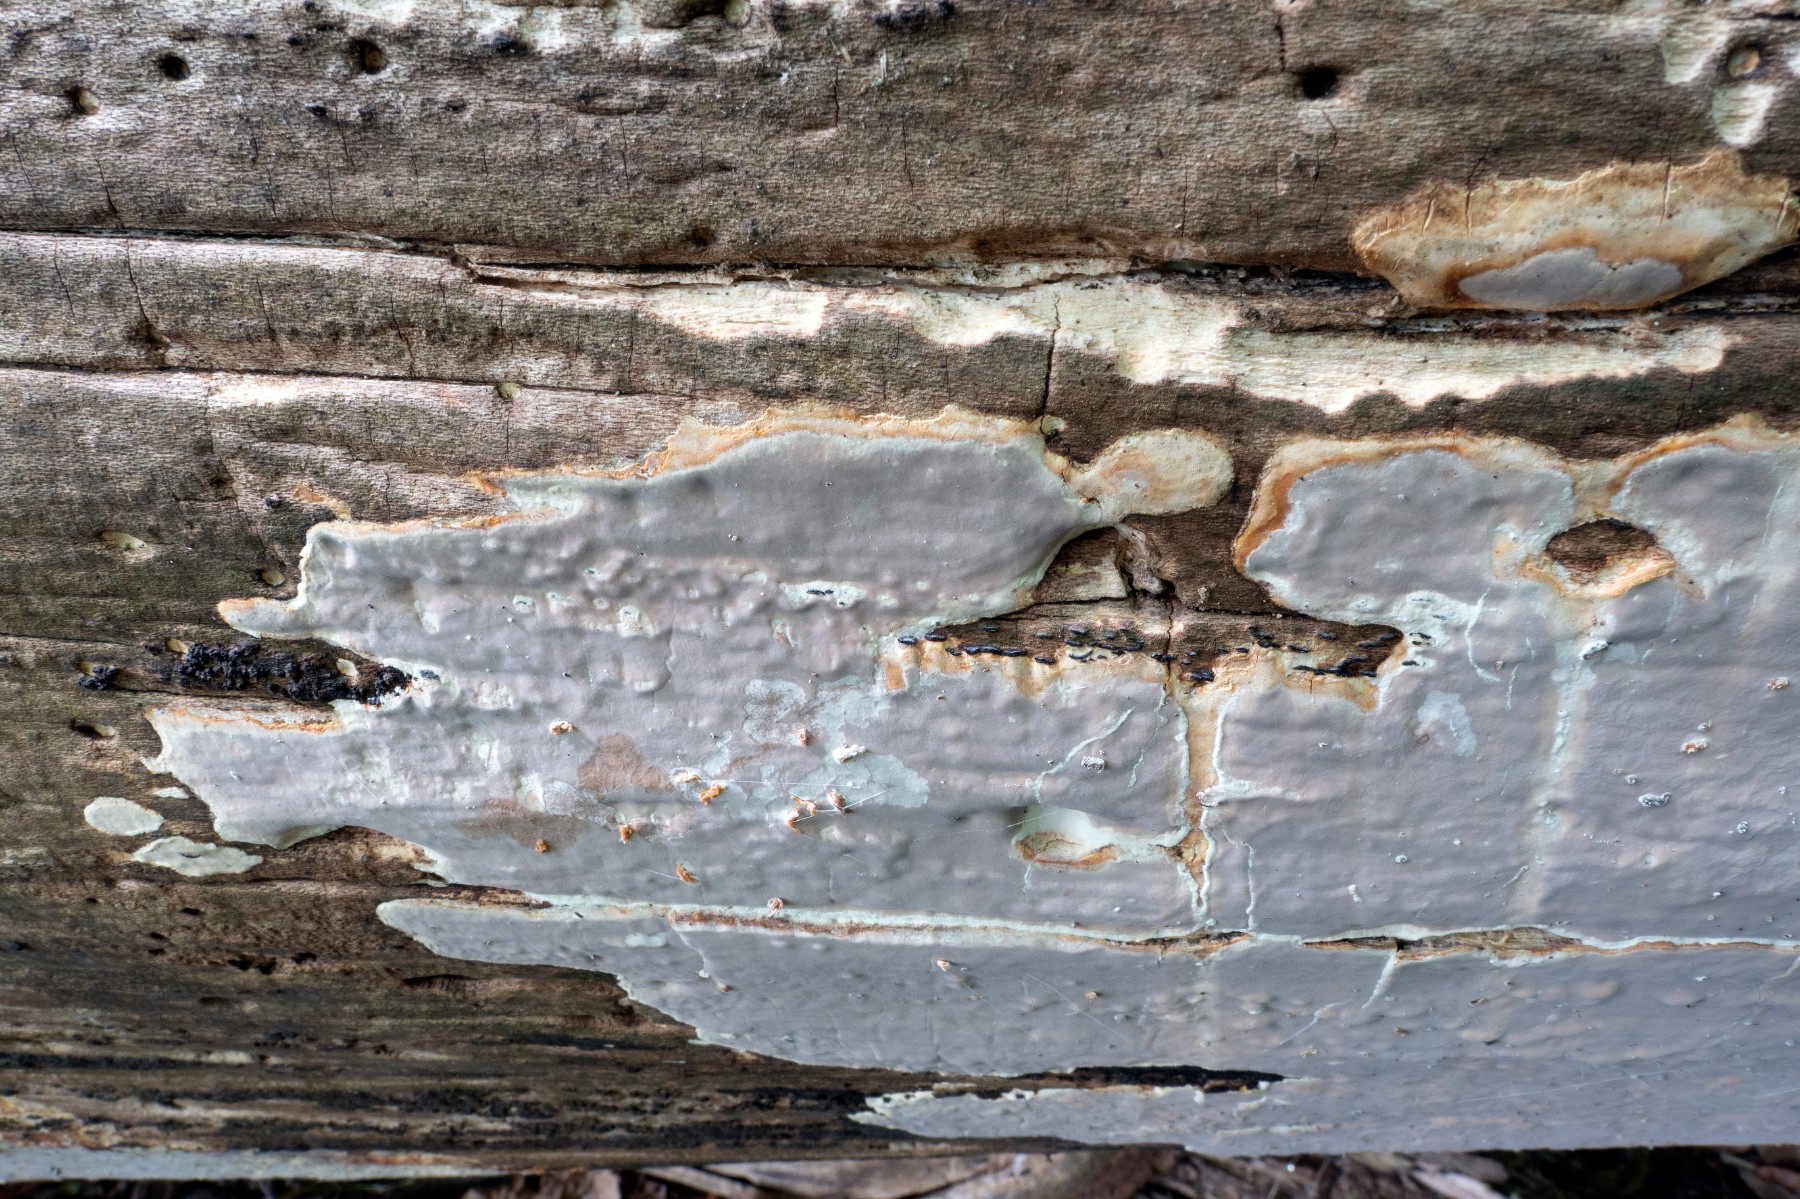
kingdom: Fungi
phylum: Basidiomycota
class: Agaricomycetes
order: Russulales
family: Peniophoraceae
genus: Scytinostroma
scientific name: Scytinostroma hemidichophyticum
